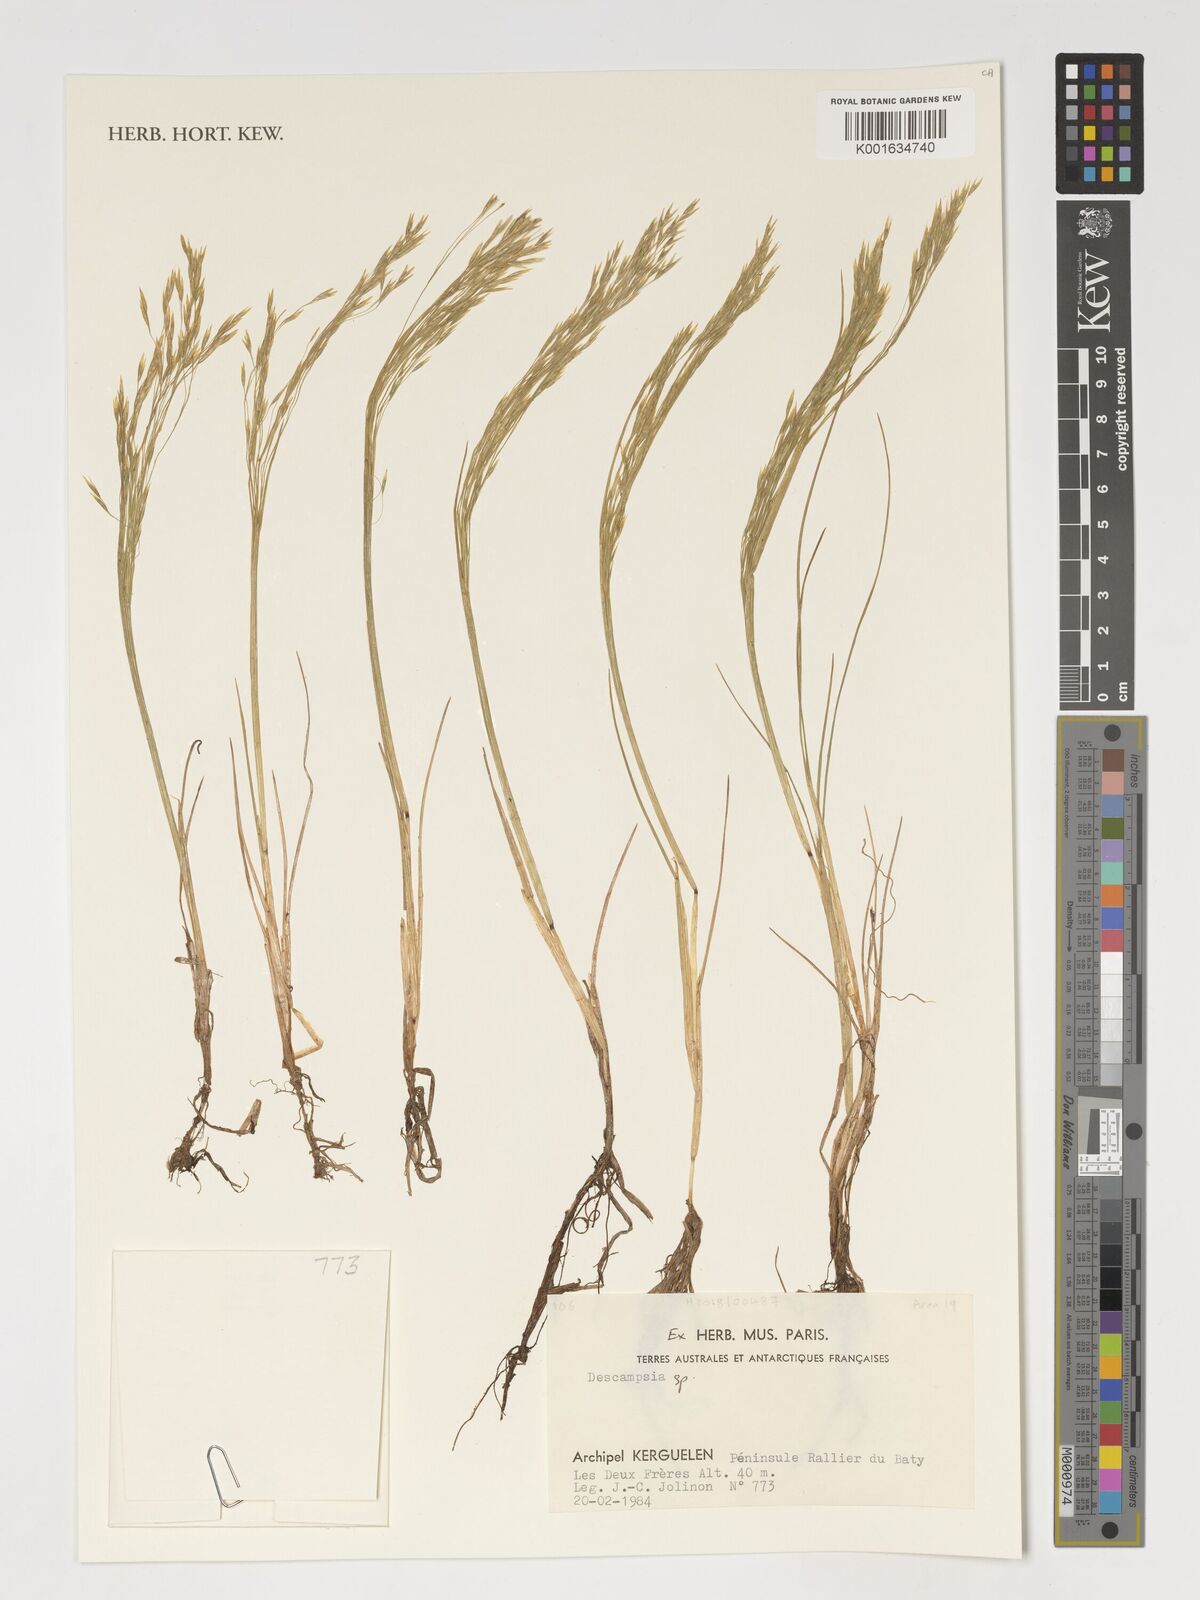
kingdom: Plantae
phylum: Tracheophyta
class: Liliopsida
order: Poales
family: Poaceae
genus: Deschampsia
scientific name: Deschampsia
